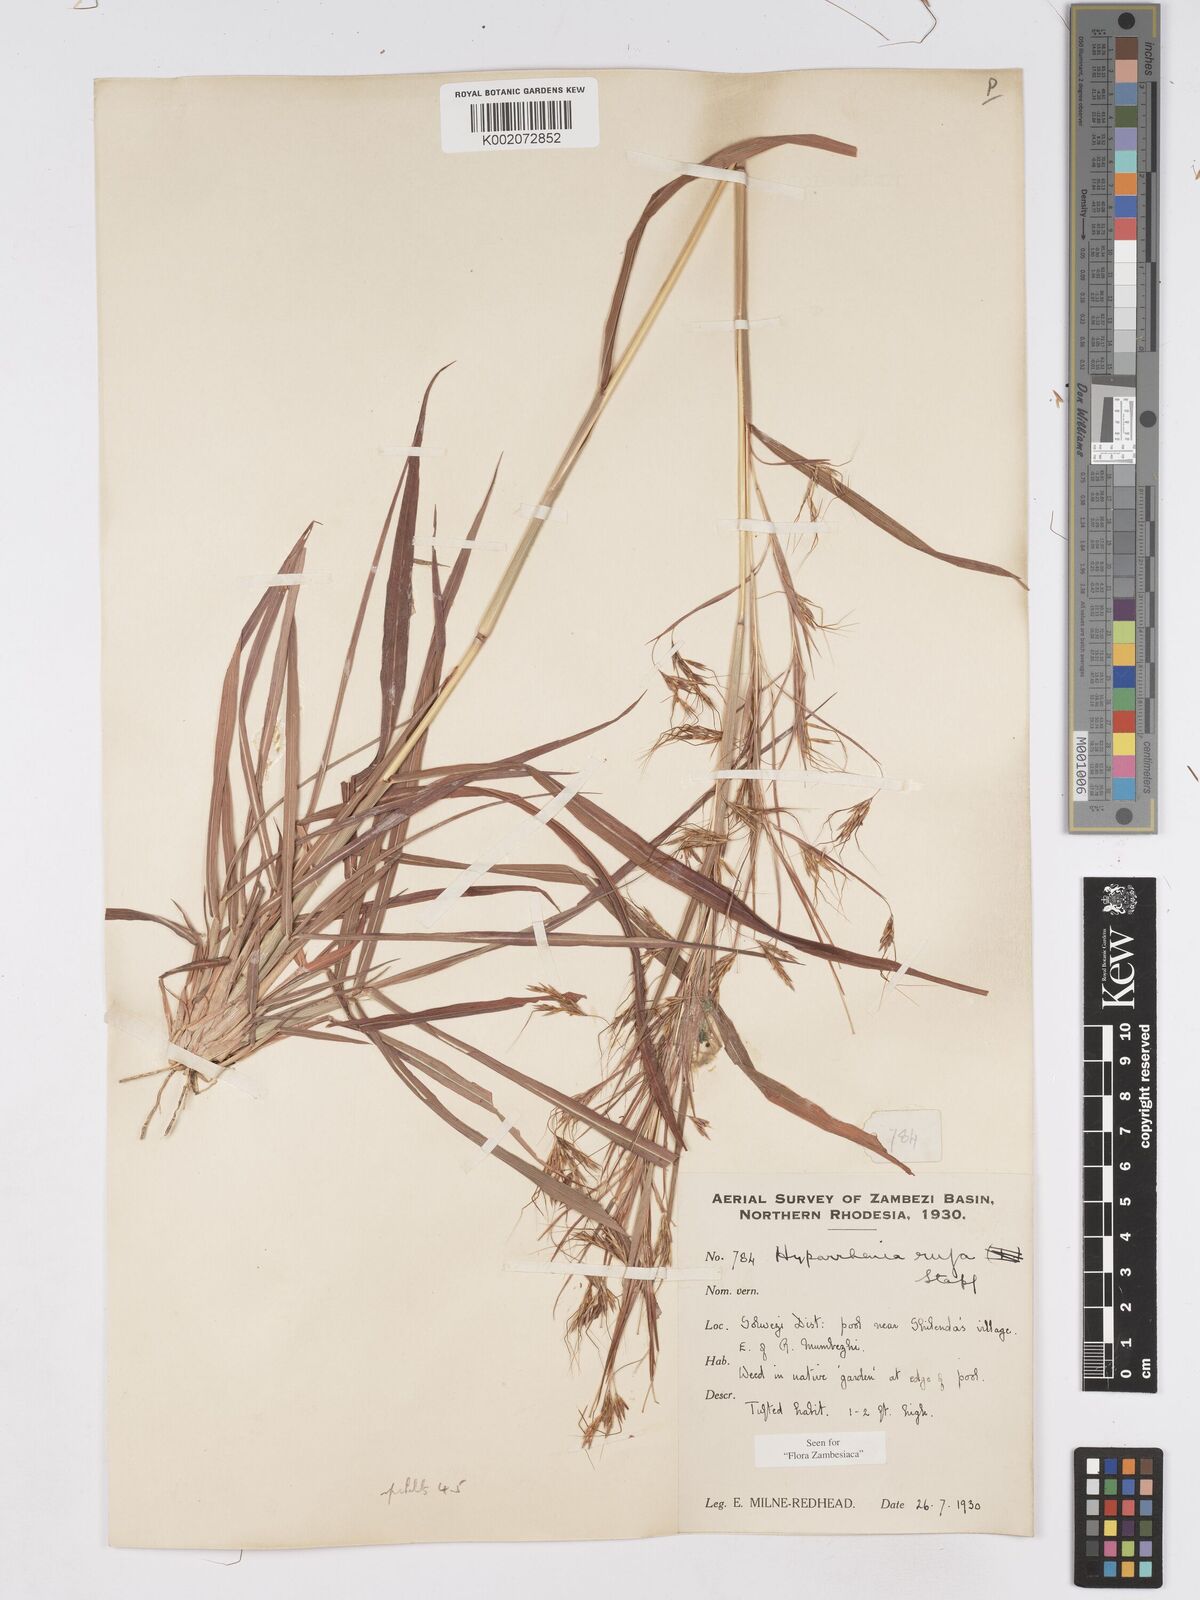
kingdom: Plantae
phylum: Tracheophyta
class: Liliopsida
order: Poales
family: Poaceae
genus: Hyparrhenia
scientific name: Hyparrhenia rufa
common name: Jaraguagrass
